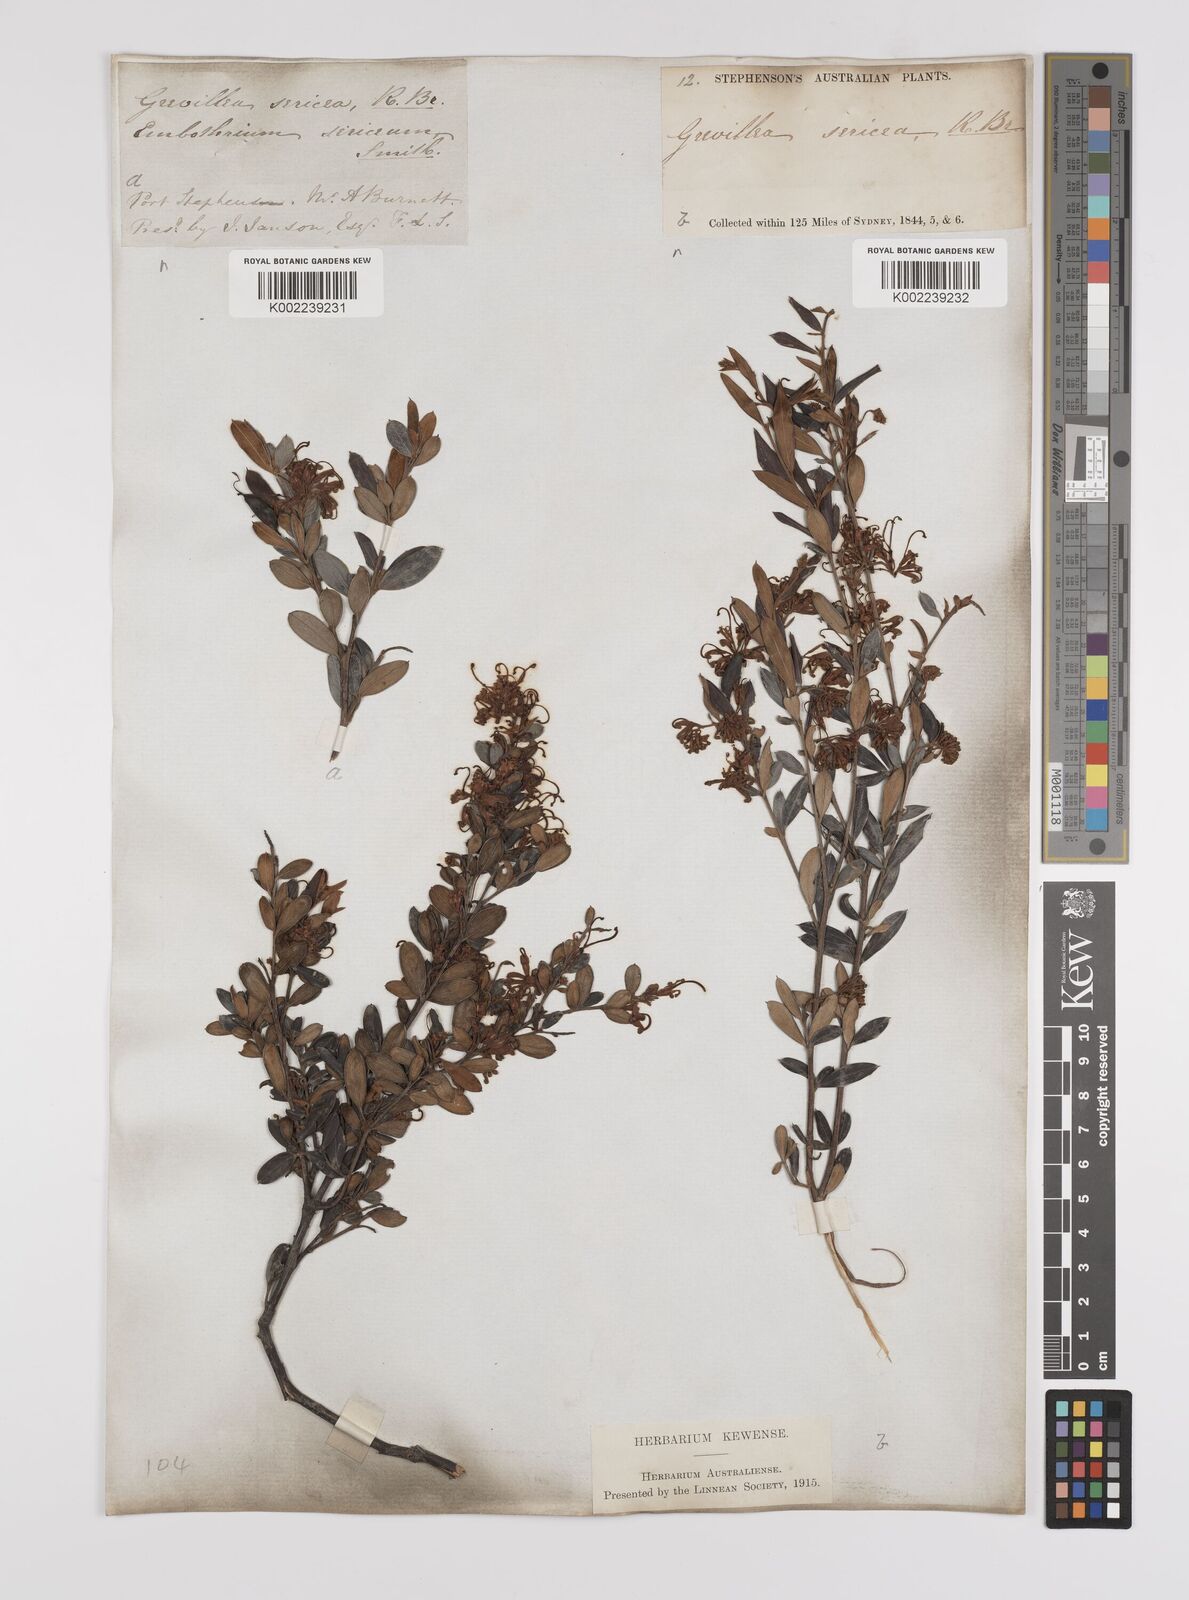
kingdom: Plantae
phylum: Tracheophyta
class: Magnoliopsida
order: Proteales
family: Proteaceae
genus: Grevillea
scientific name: Grevillea sericea
